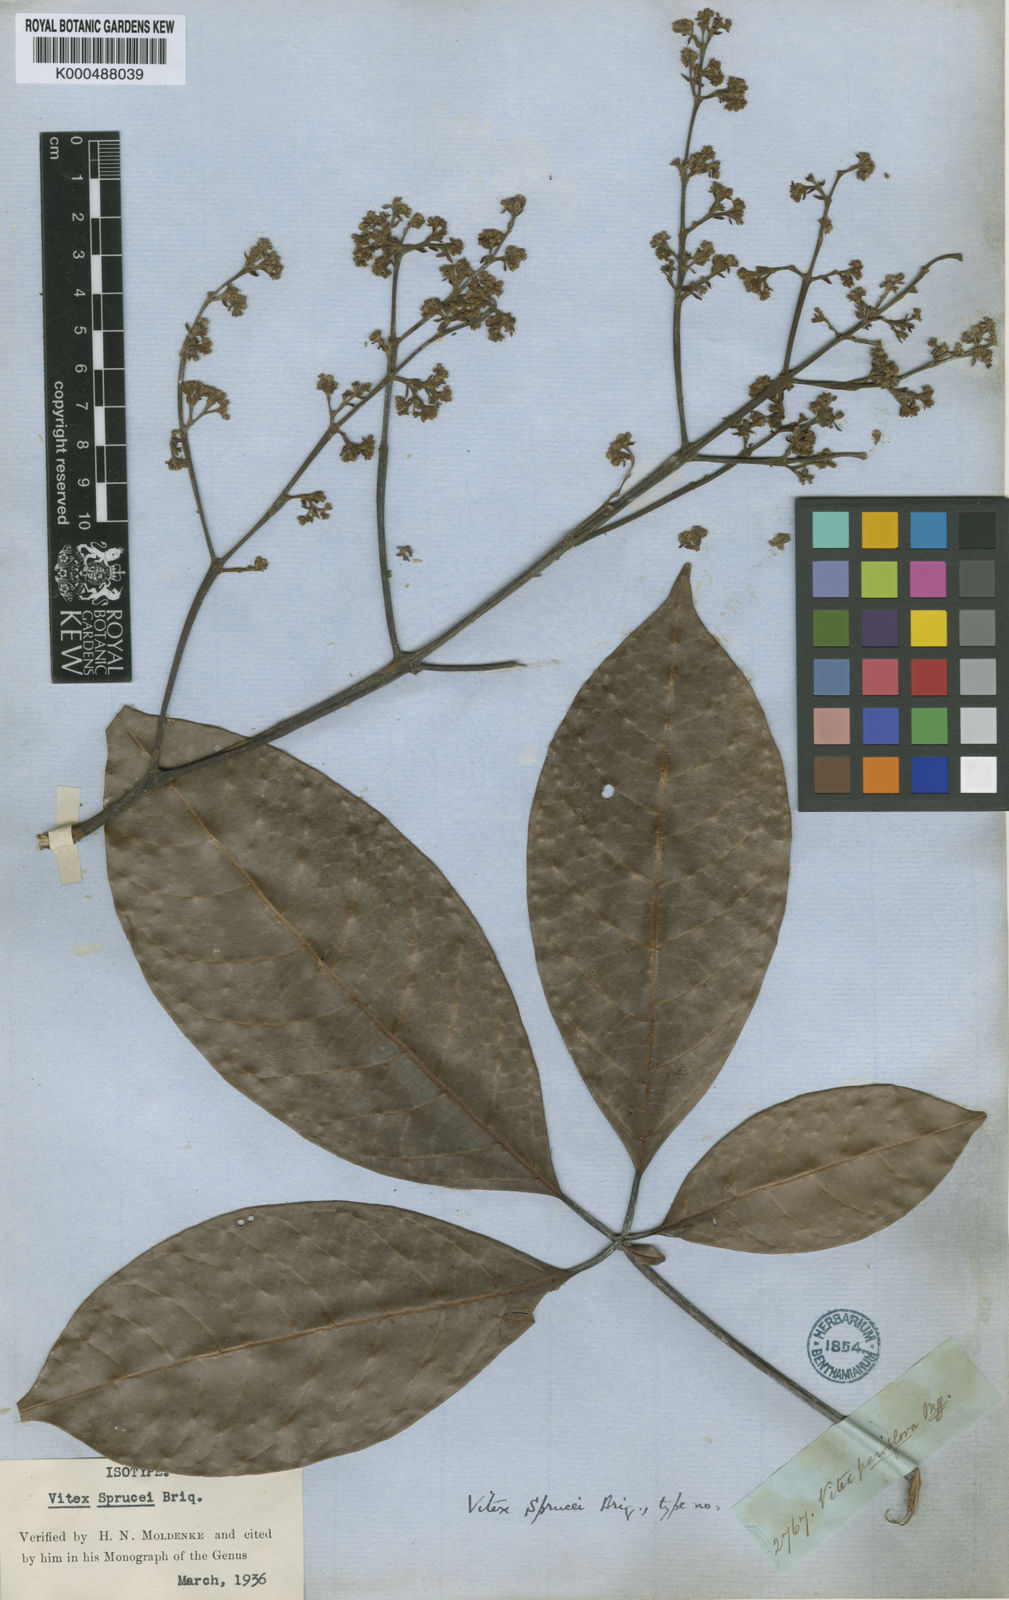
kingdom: Plantae
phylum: Tracheophyta
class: Magnoliopsida
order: Lamiales
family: Lamiaceae
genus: Vitex
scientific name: Vitex sprucei
